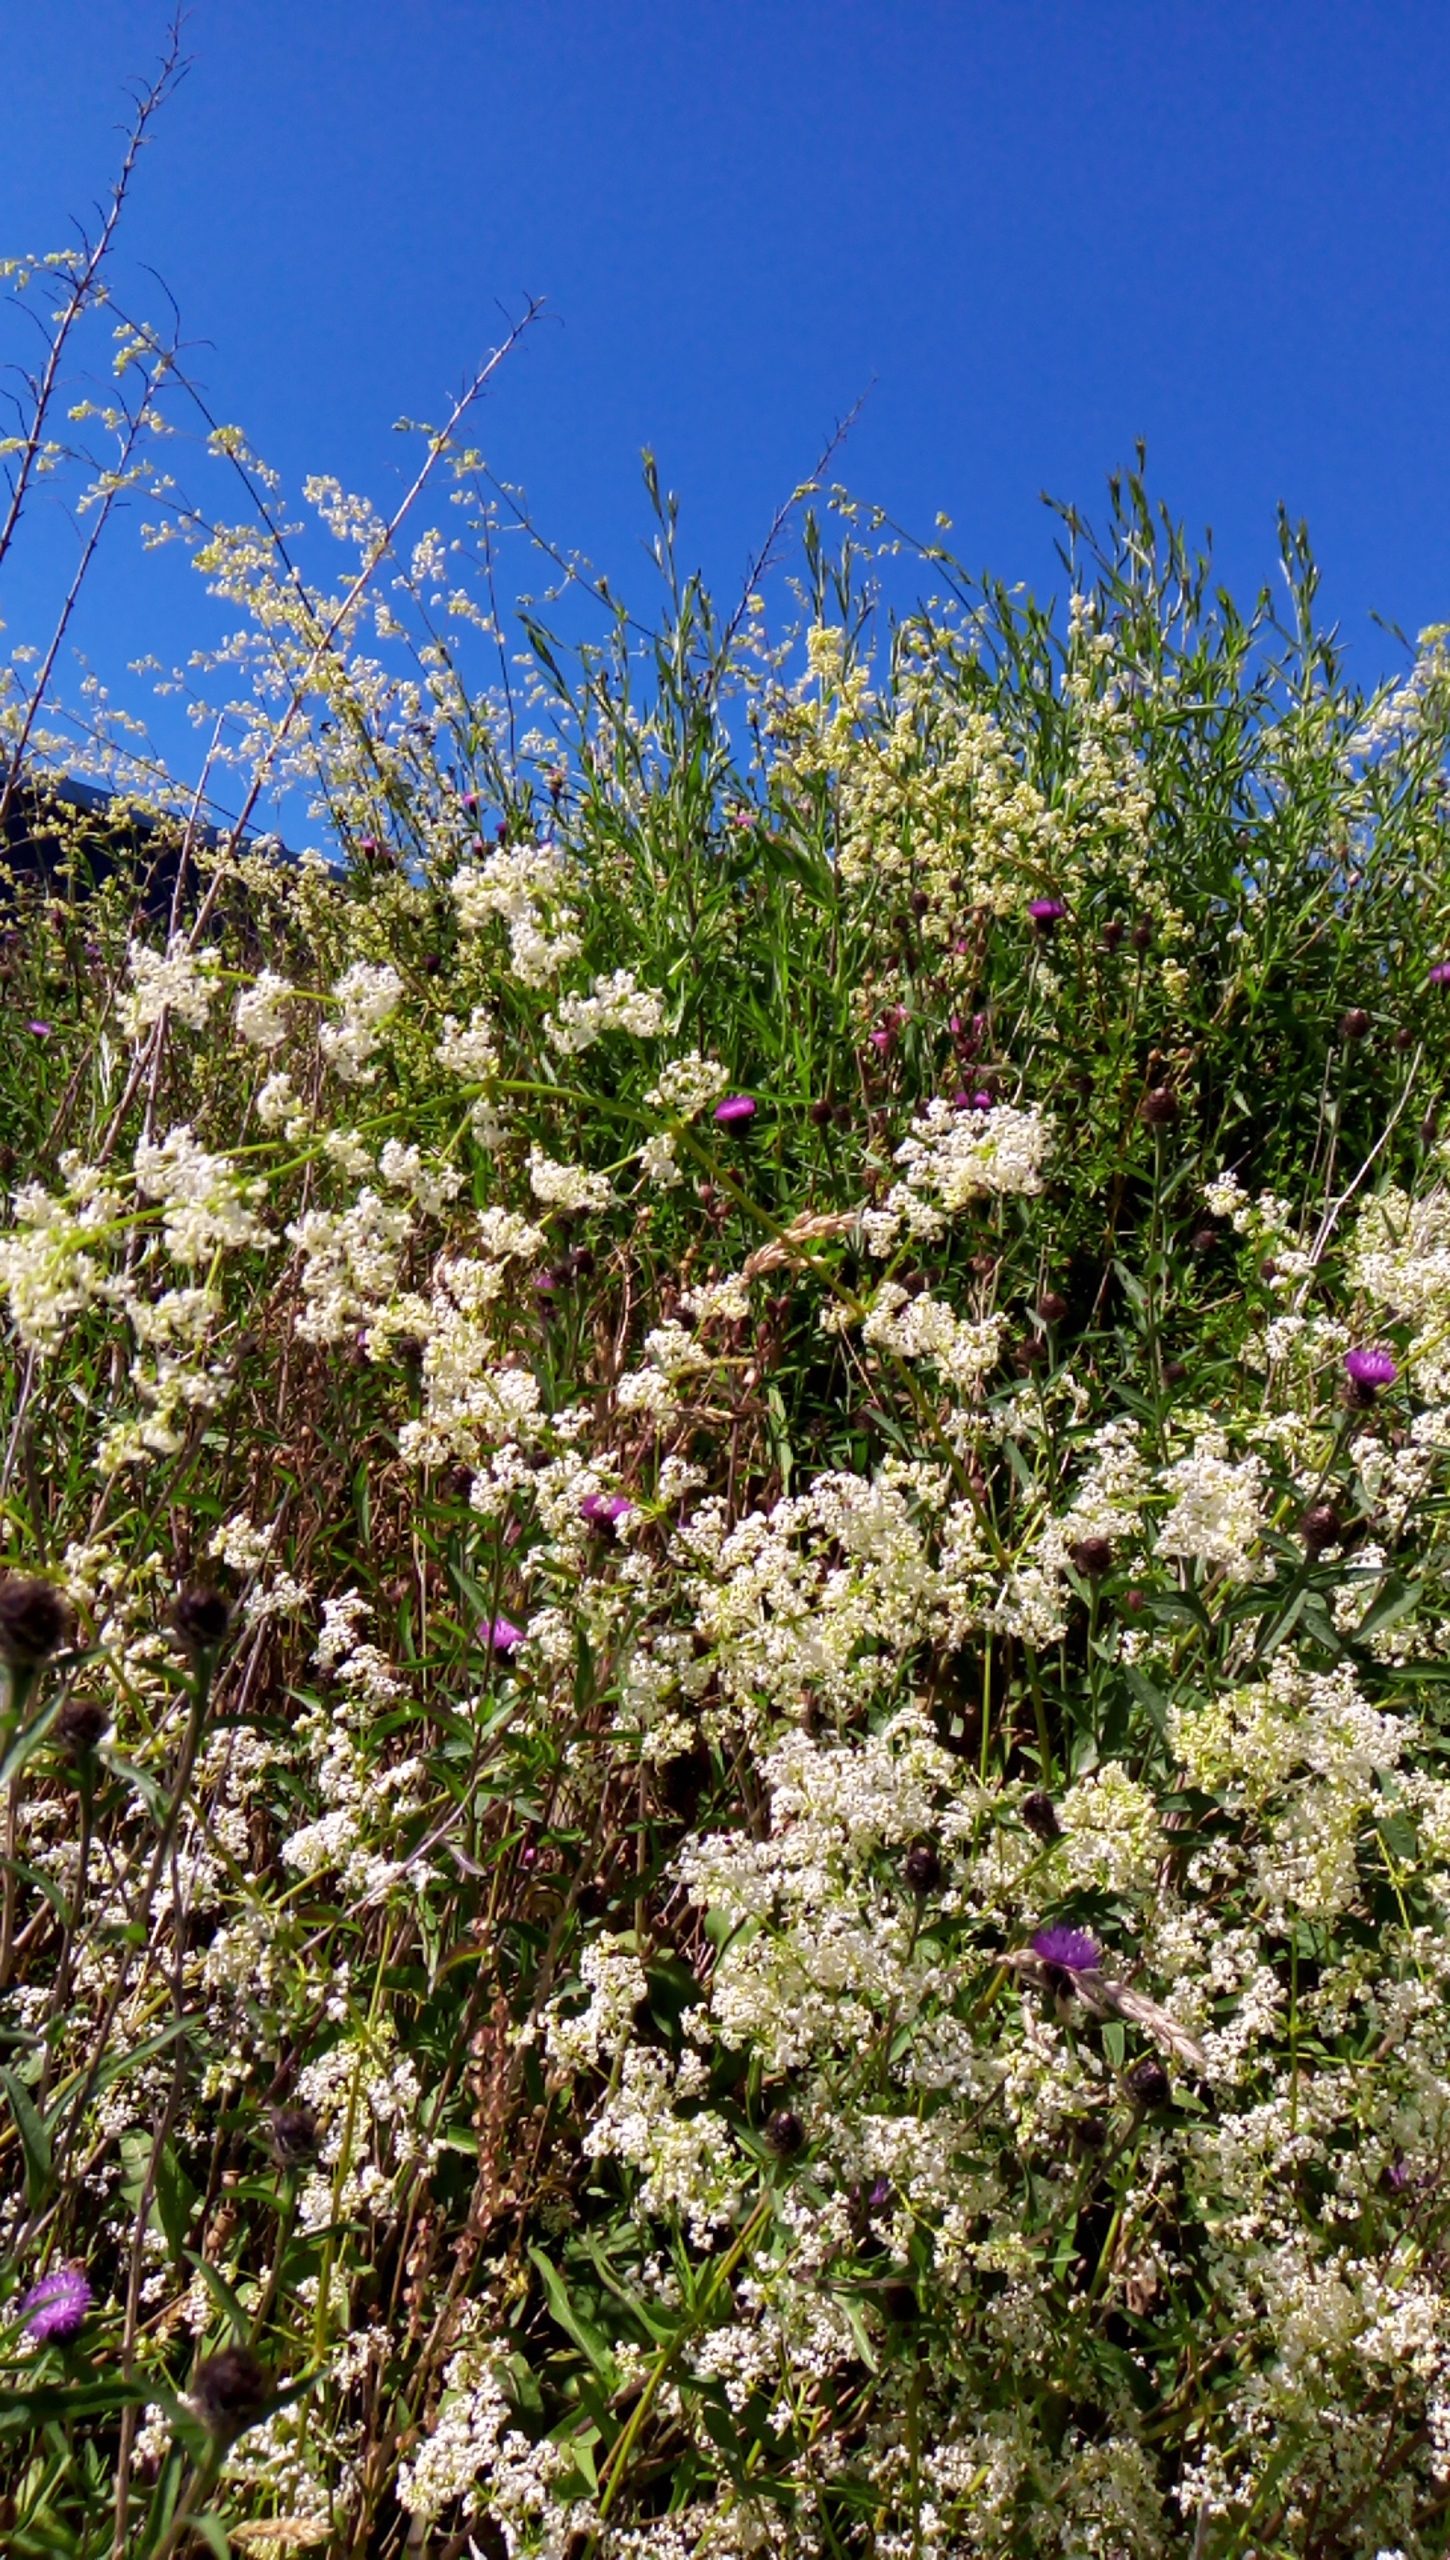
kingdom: Plantae
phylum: Tracheophyta
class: Magnoliopsida
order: Gentianales
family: Rubiaceae
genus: Galium
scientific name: Galium mollugo
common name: Hvid snerre
